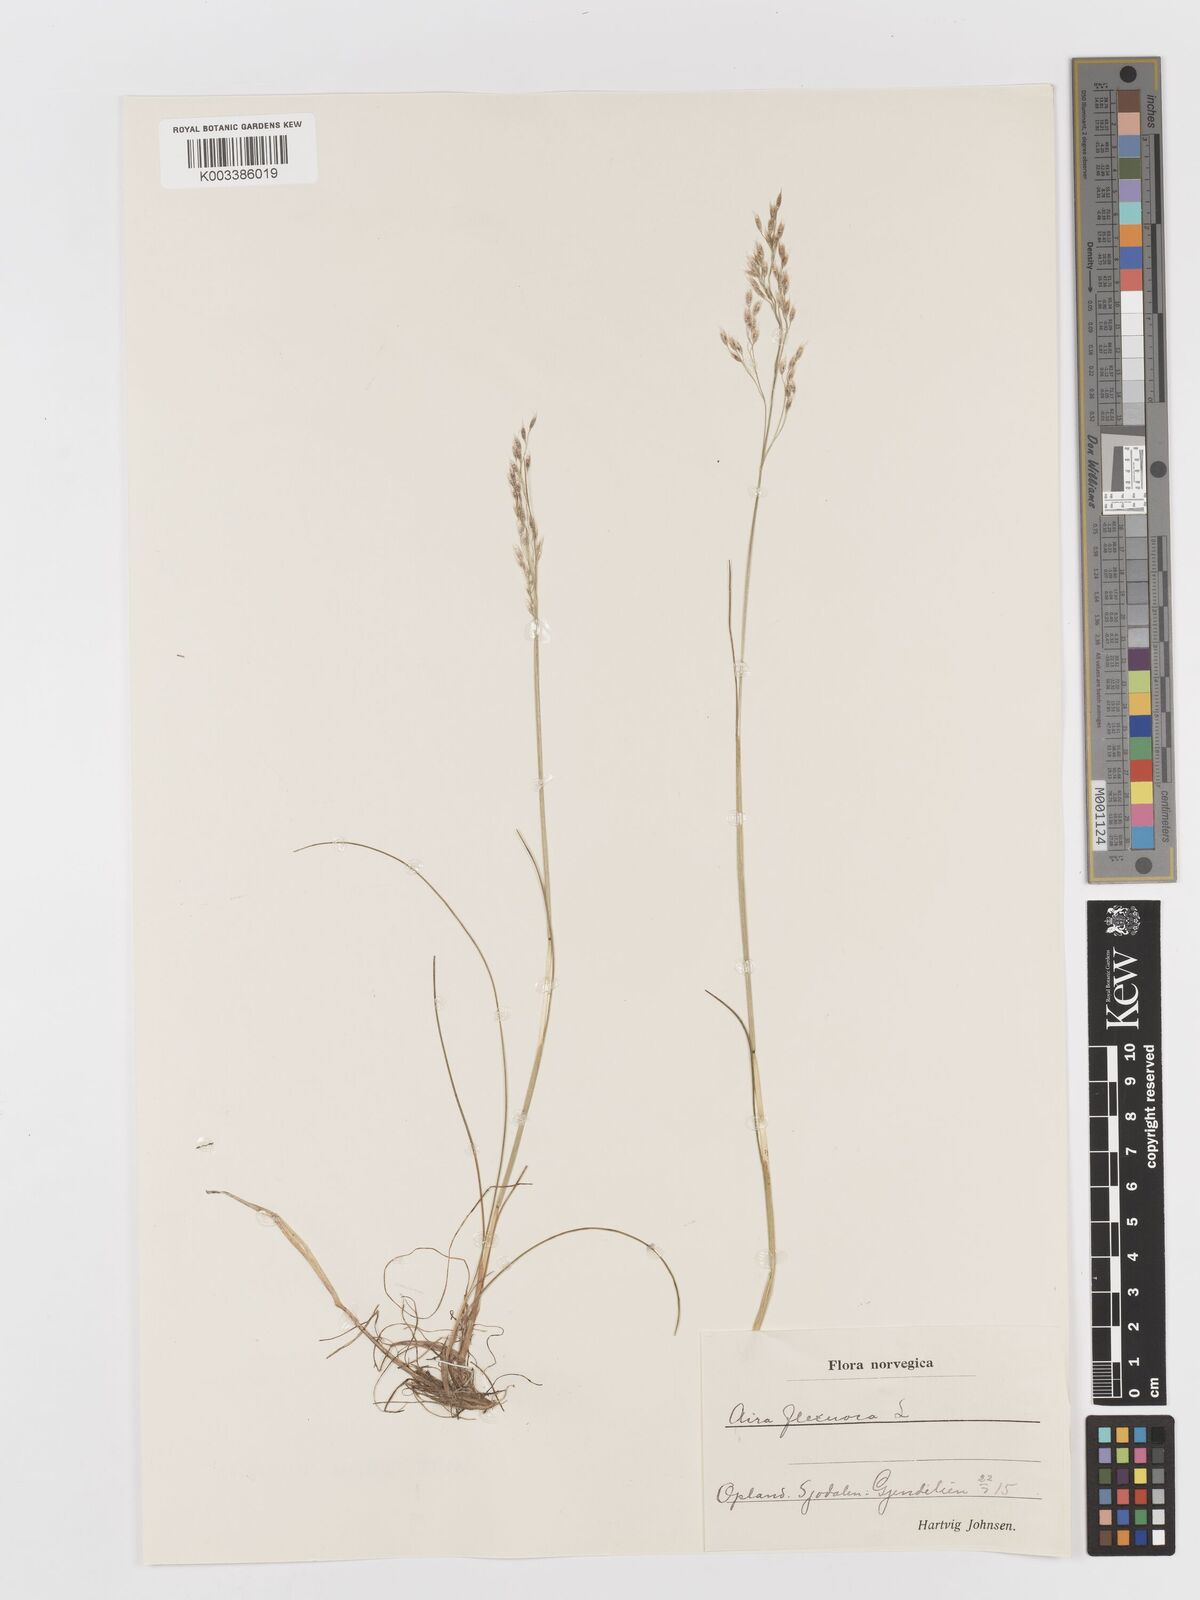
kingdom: Plantae
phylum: Tracheophyta
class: Liliopsida
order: Poales
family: Poaceae
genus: Avenella
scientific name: Avenella flexuosa
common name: Wavy hairgrass
